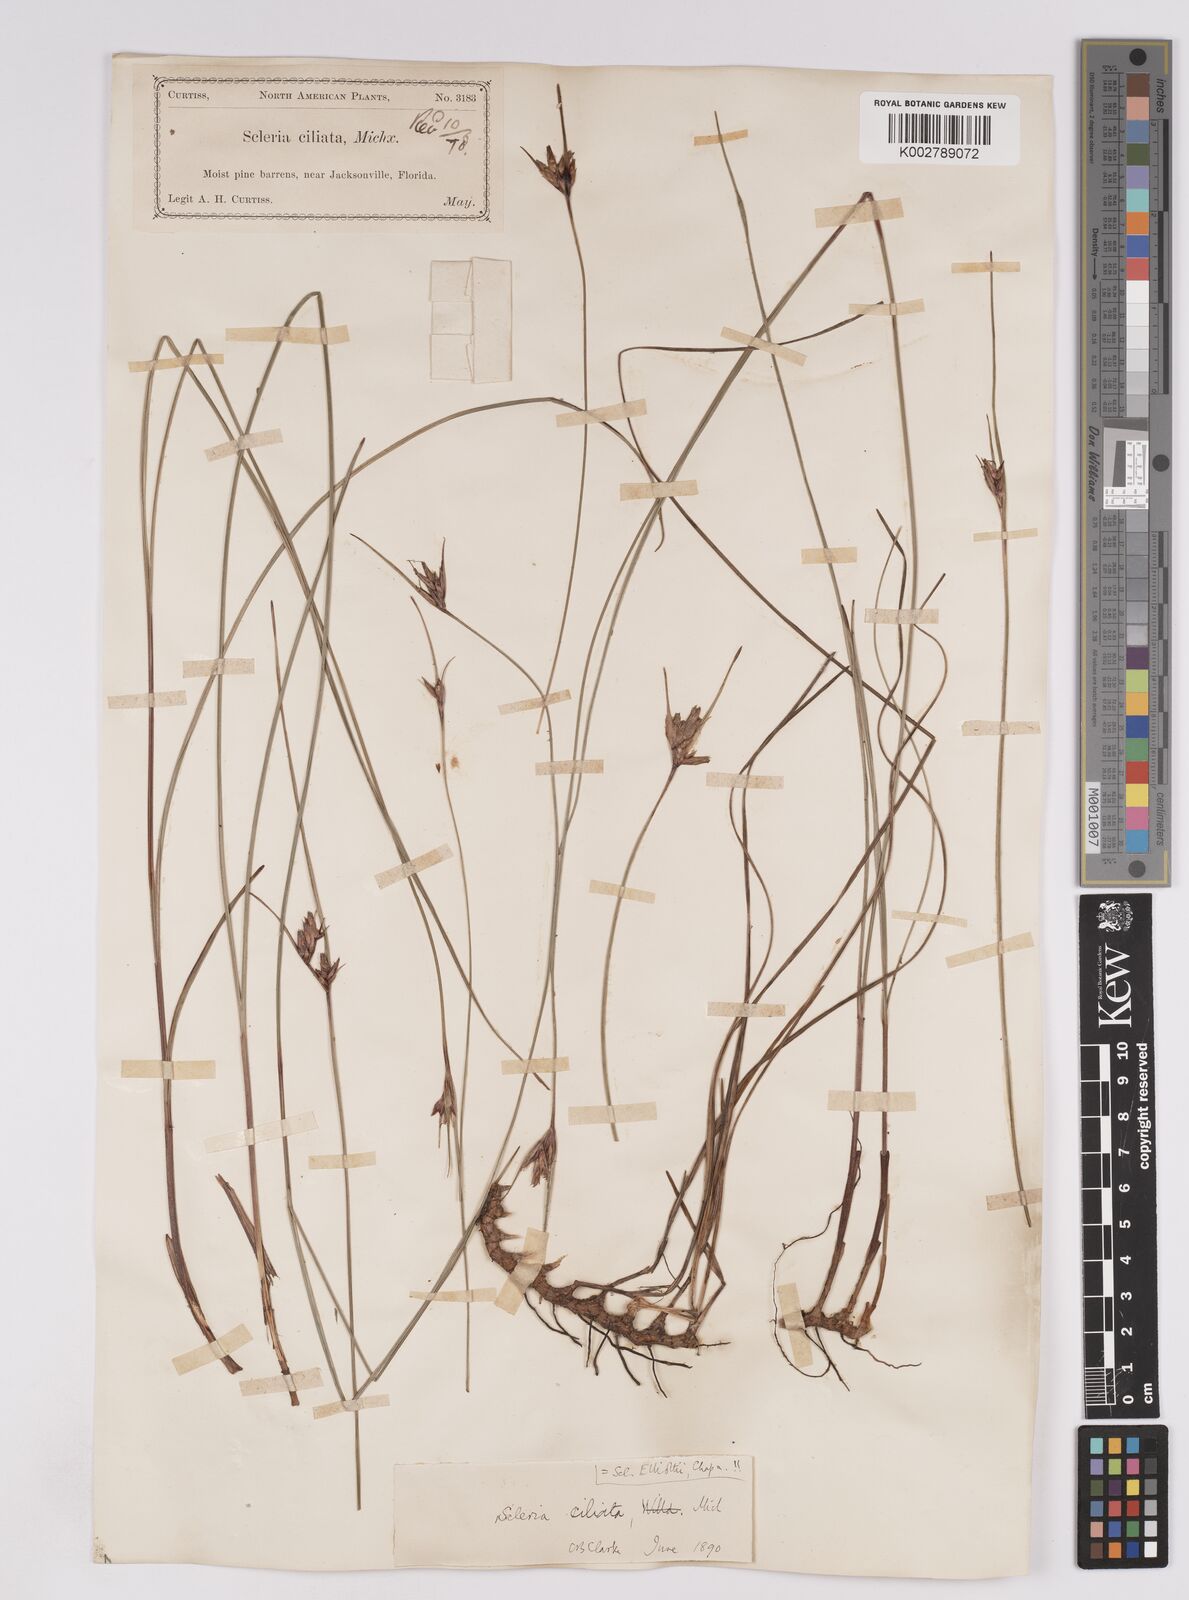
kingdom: Plantae
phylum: Tracheophyta
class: Liliopsida
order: Poales
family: Cyperaceae
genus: Scleria
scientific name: Scleria ciliata
